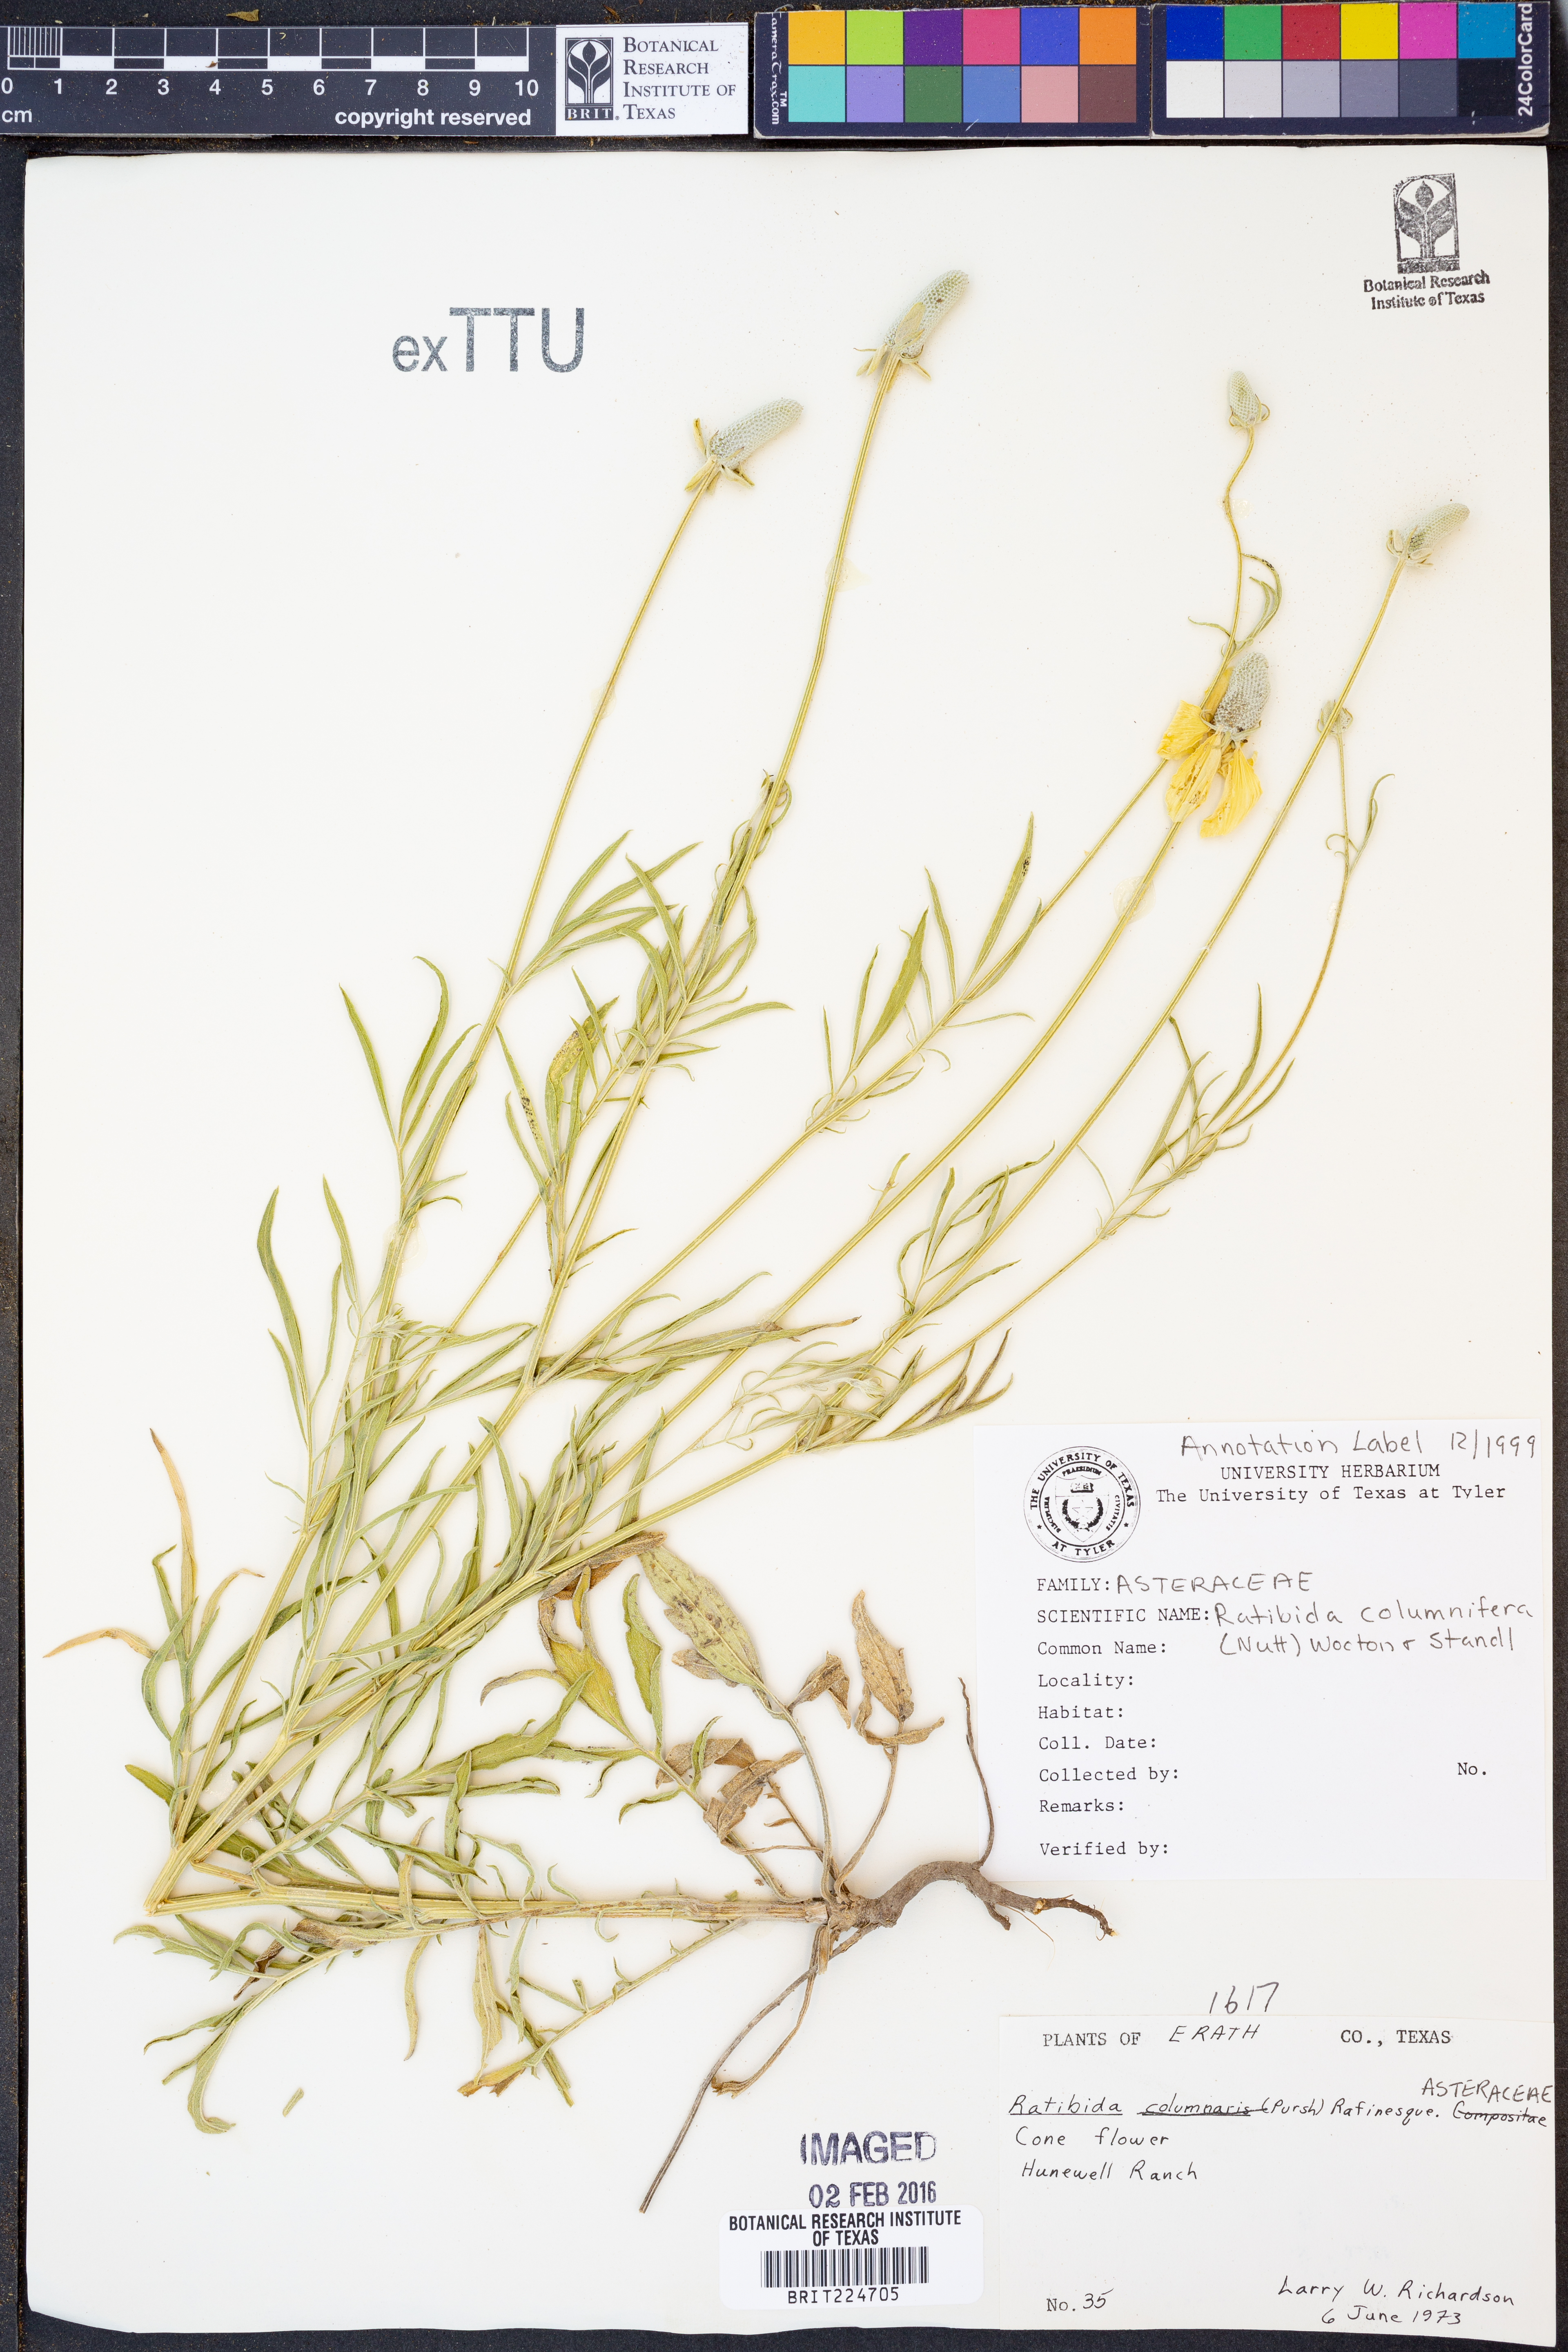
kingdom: Plantae
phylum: Tracheophyta
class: Magnoliopsida
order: Asterales
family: Asteraceae
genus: Ratibida
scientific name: Ratibida columnifera
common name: Prairie coneflower
